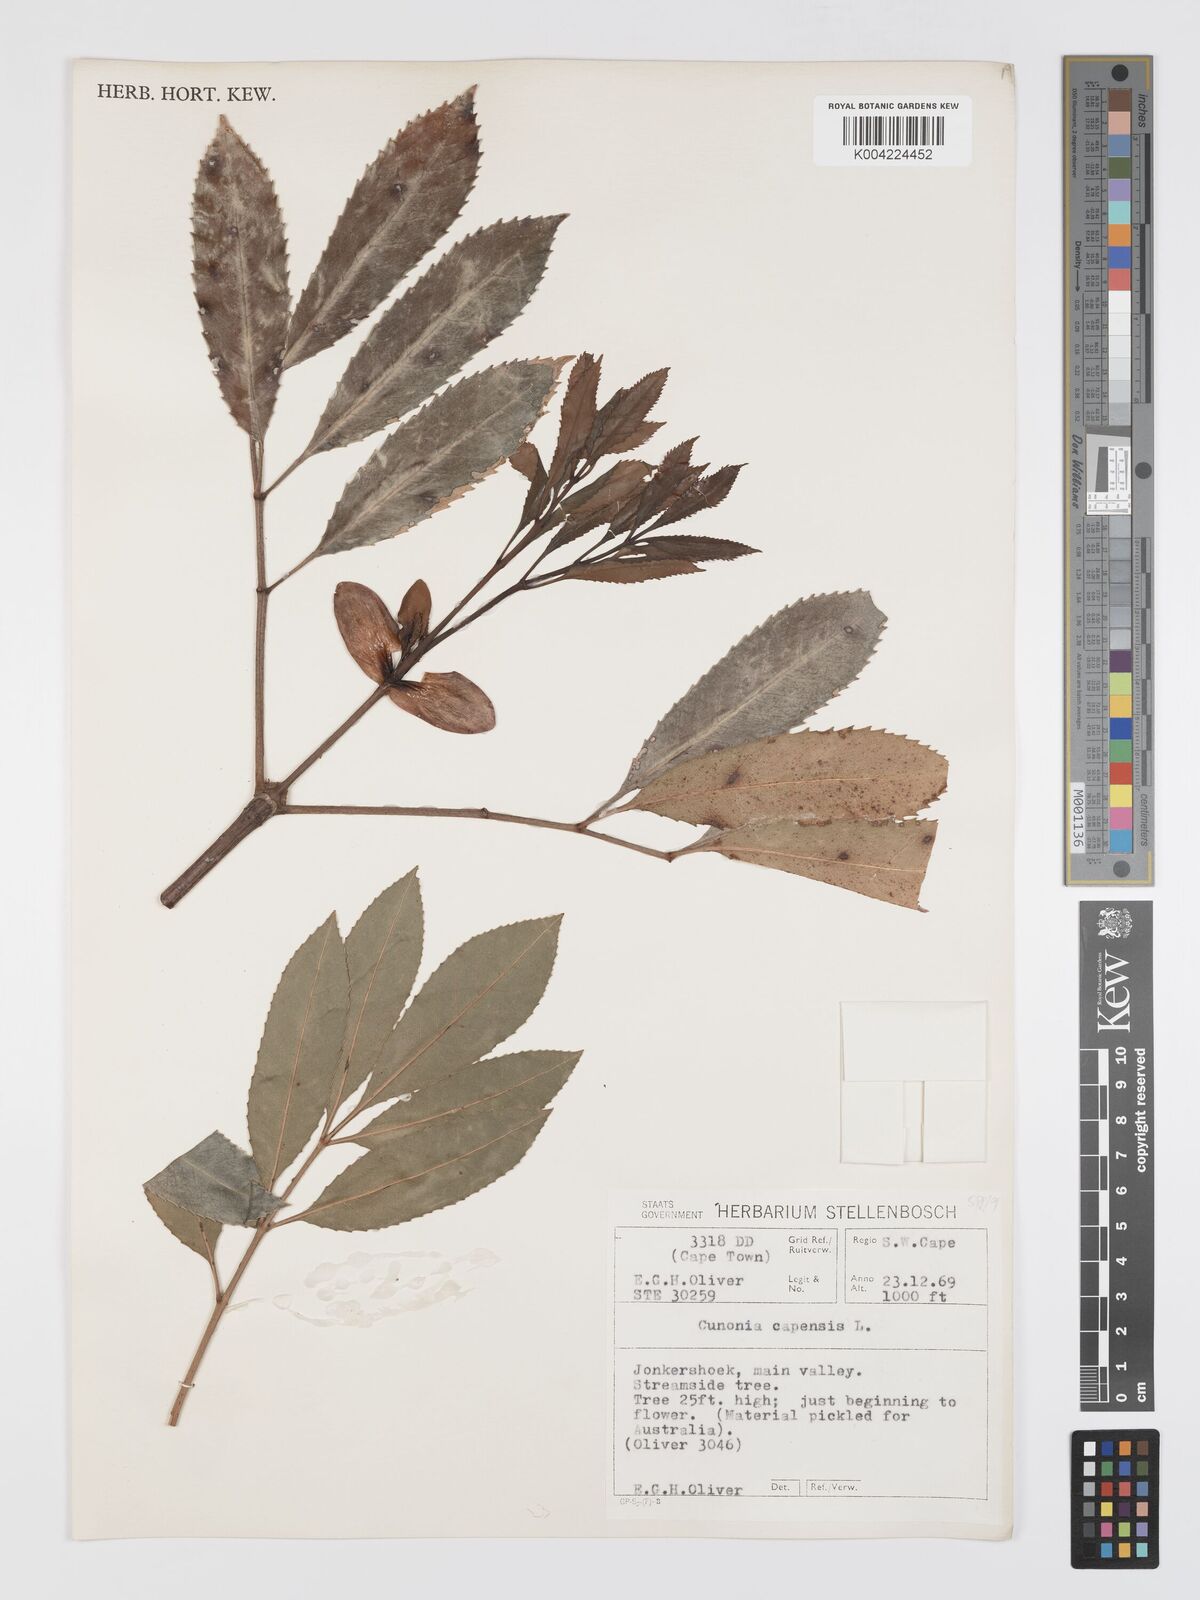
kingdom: Plantae
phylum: Tracheophyta
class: Magnoliopsida
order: Oxalidales
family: Cunoniaceae
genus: Cunonia
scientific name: Cunonia capensis
